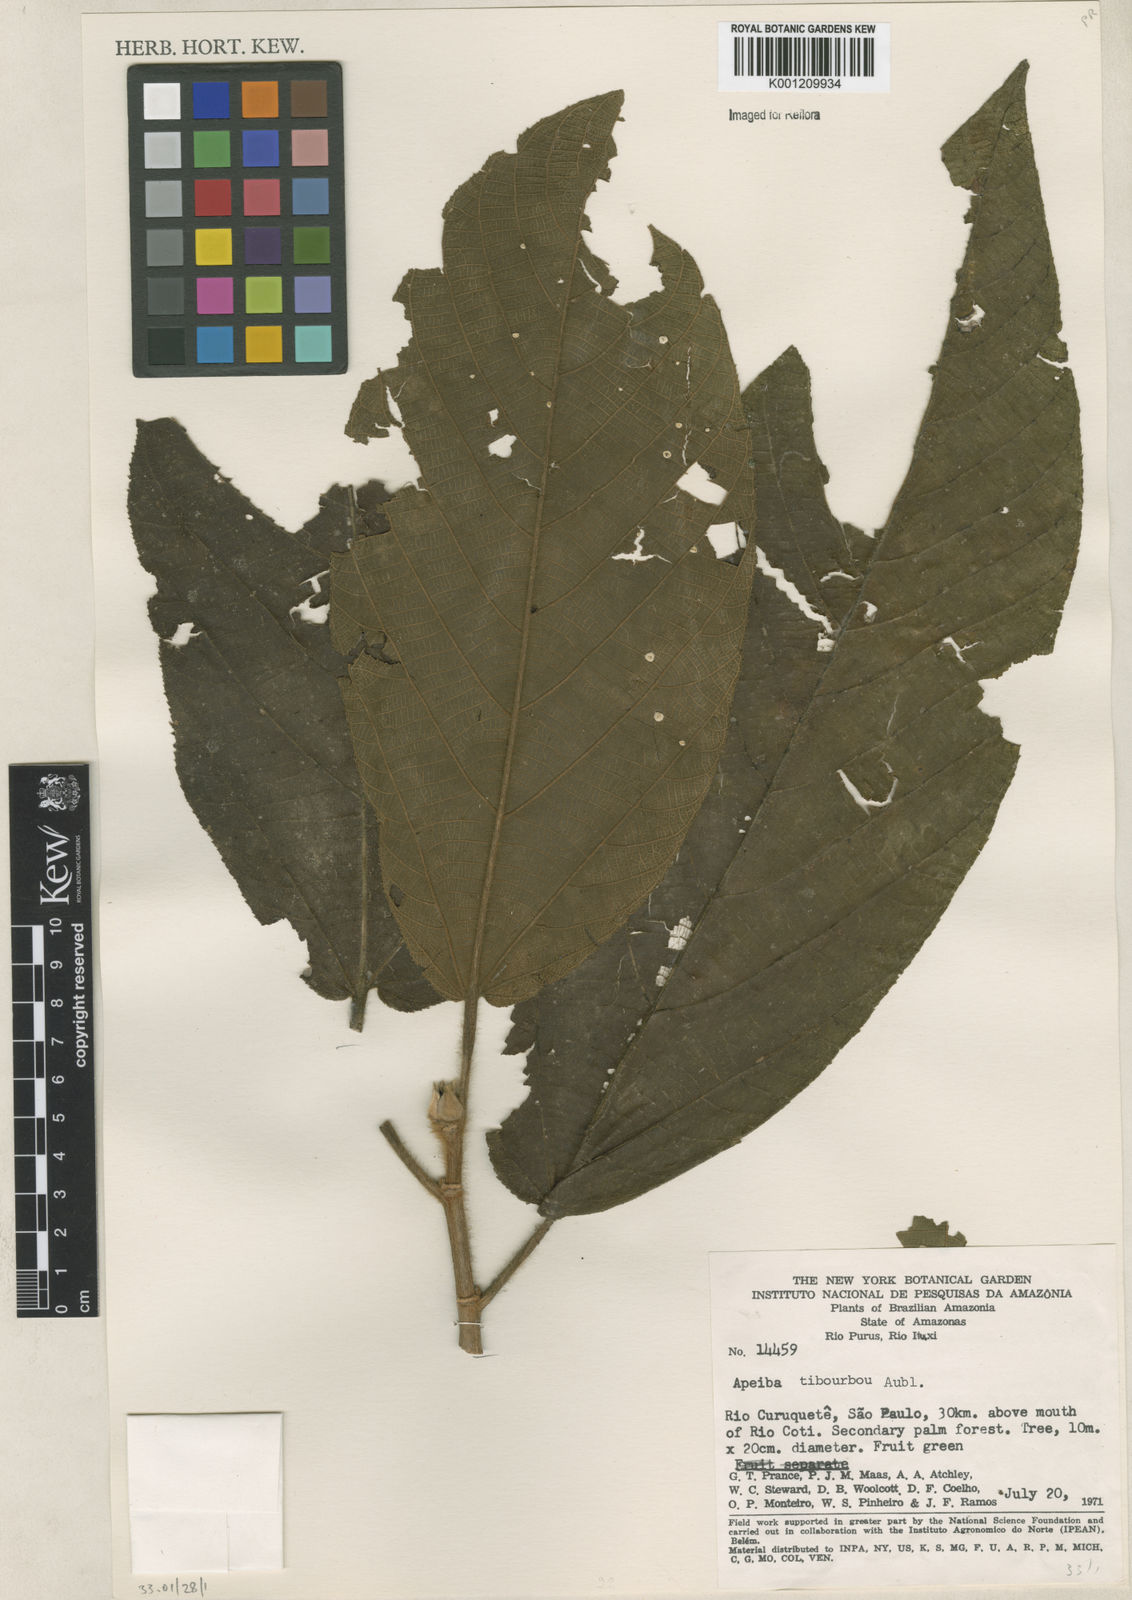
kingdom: Plantae
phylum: Tracheophyta
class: Magnoliopsida
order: Malvales
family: Malvaceae
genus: Apeiba
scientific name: Apeiba tibourbou
